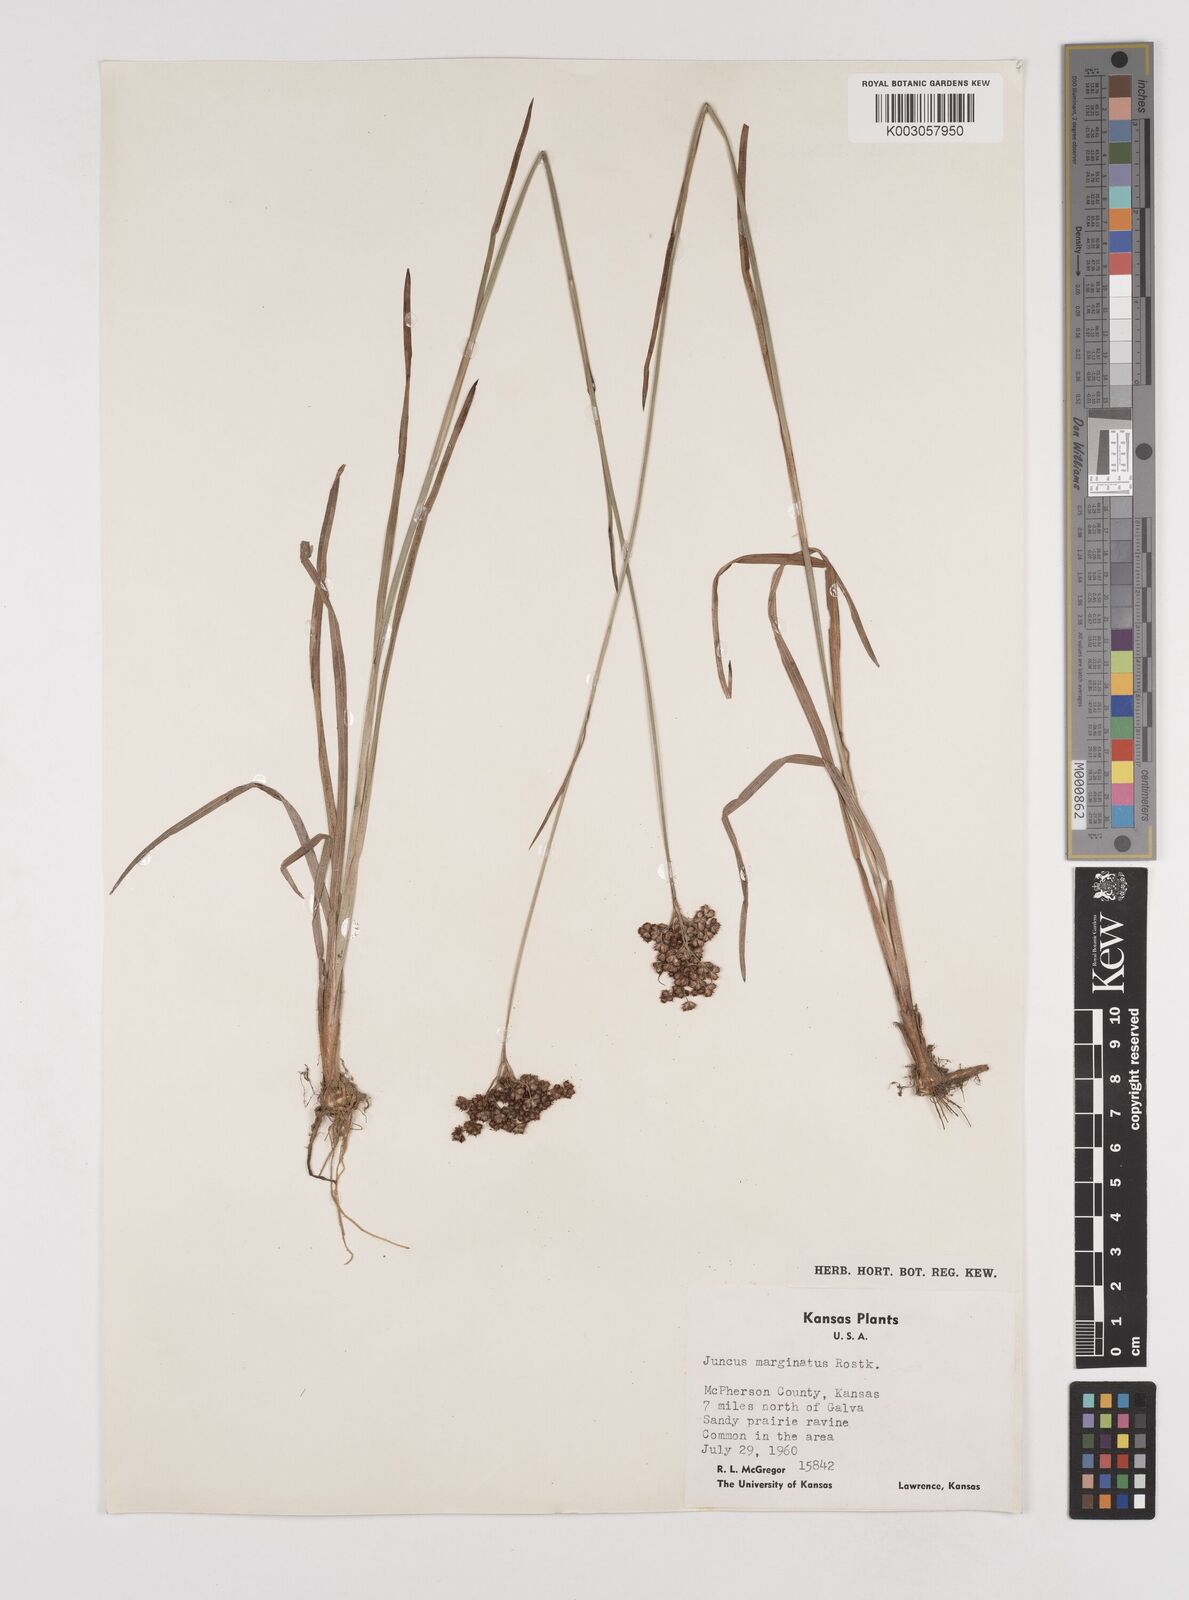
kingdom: Plantae
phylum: Tracheophyta
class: Liliopsida
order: Poales
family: Juncaceae
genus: Juncus
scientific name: Juncus marginatus
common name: Grass-leaf rush
